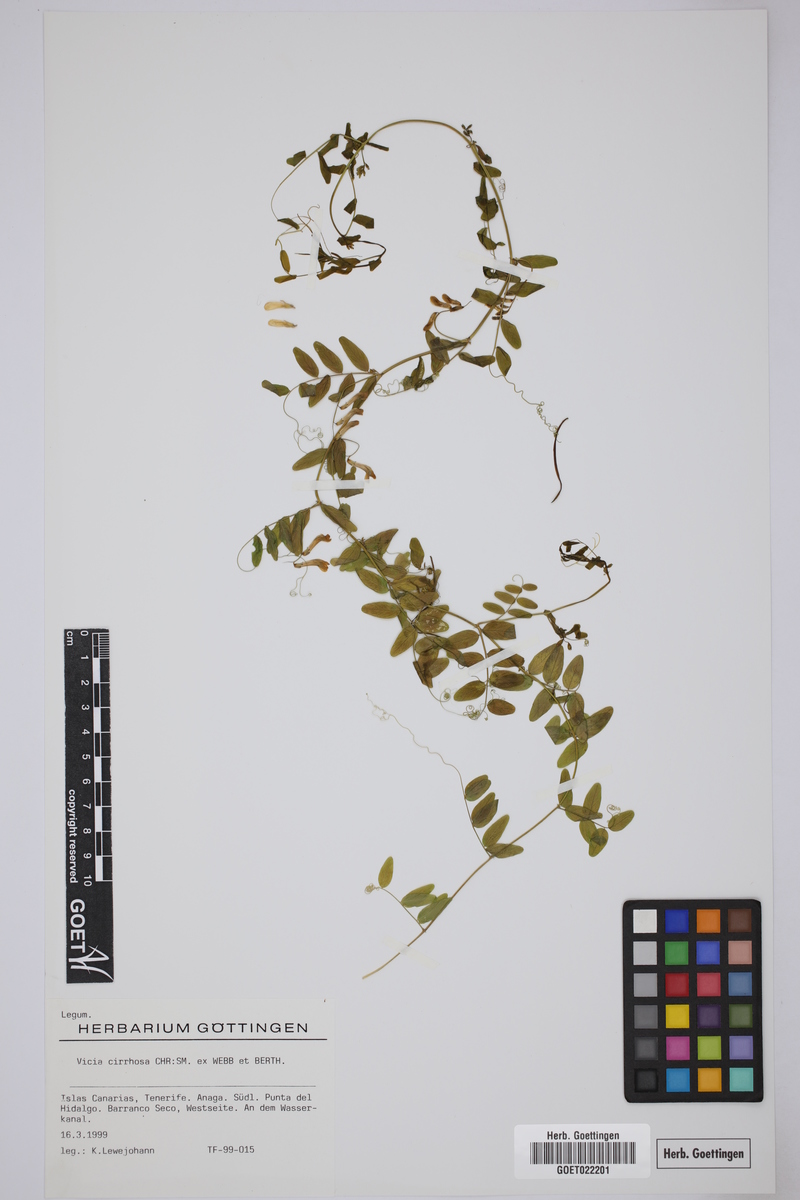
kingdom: Plantae
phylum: Tracheophyta
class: Magnoliopsida
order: Fabales
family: Fabaceae
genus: Vicia
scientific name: Vicia aphylla
